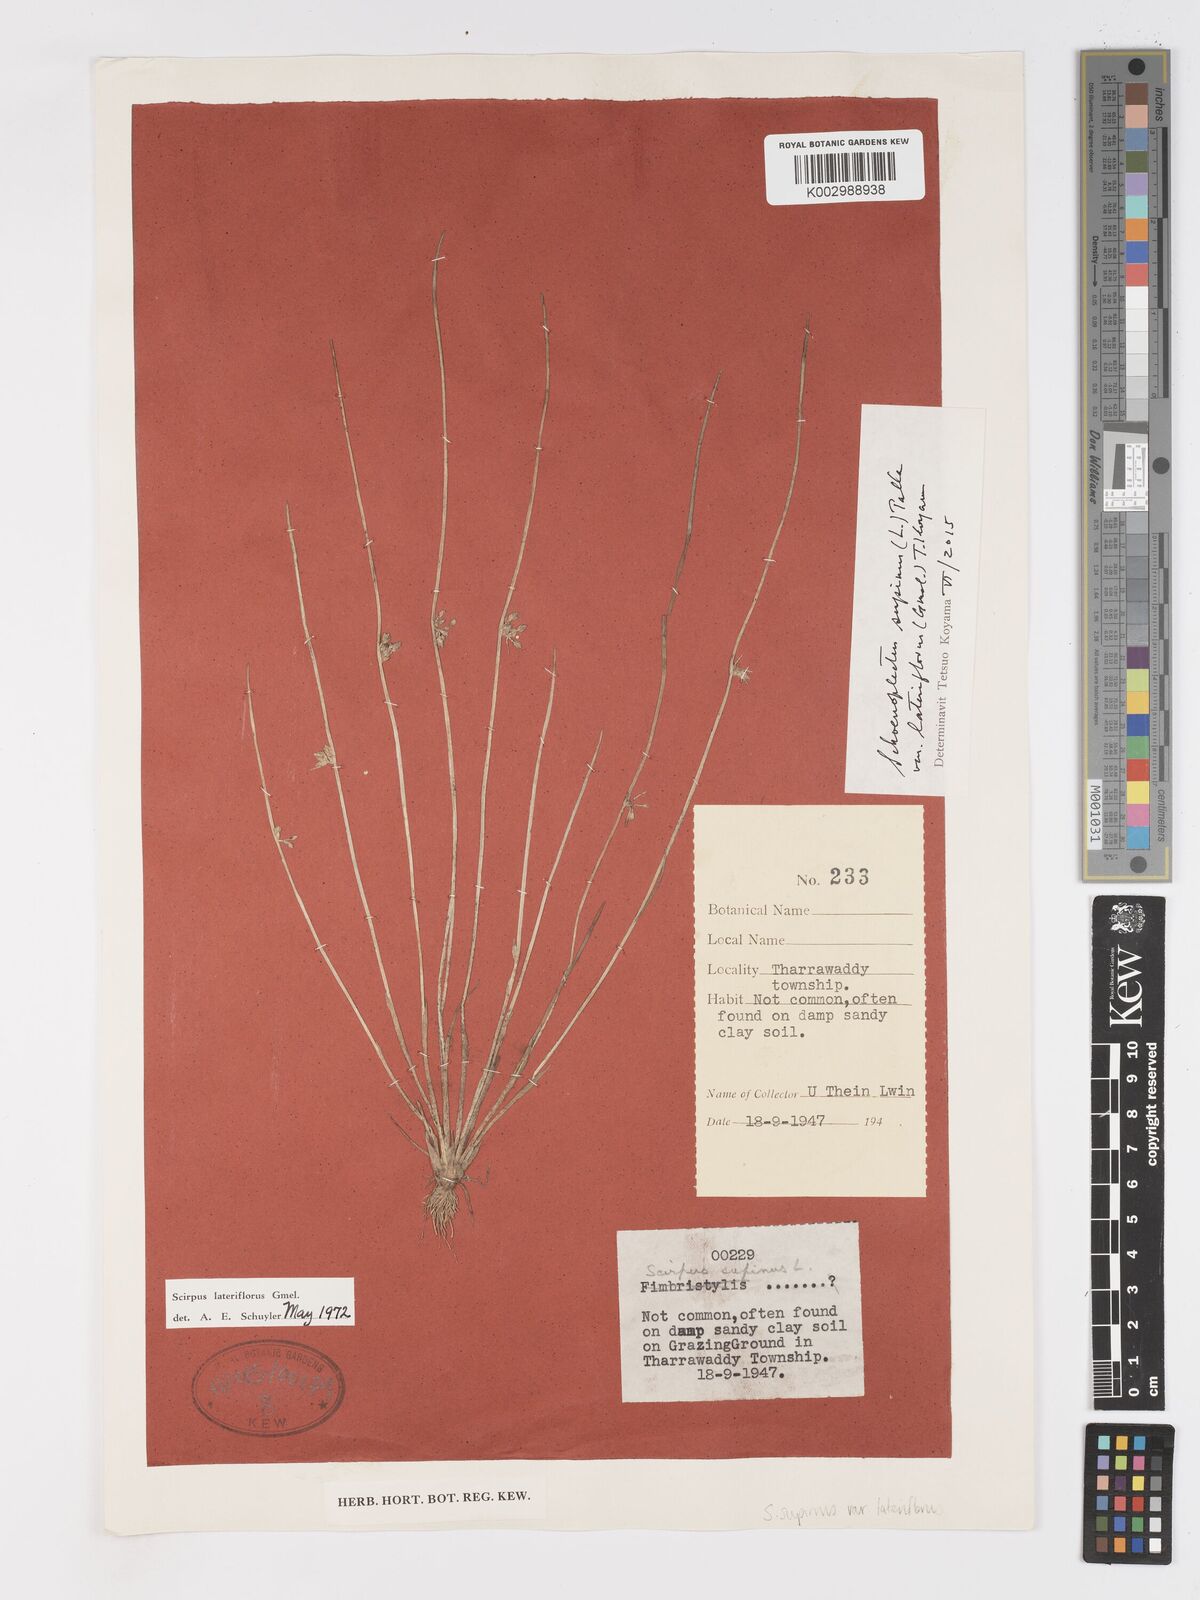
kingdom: Plantae
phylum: Tracheophyta
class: Liliopsida
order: Poales
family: Cyperaceae
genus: Schoenoplectiella
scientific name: Schoenoplectiella lateriflora
